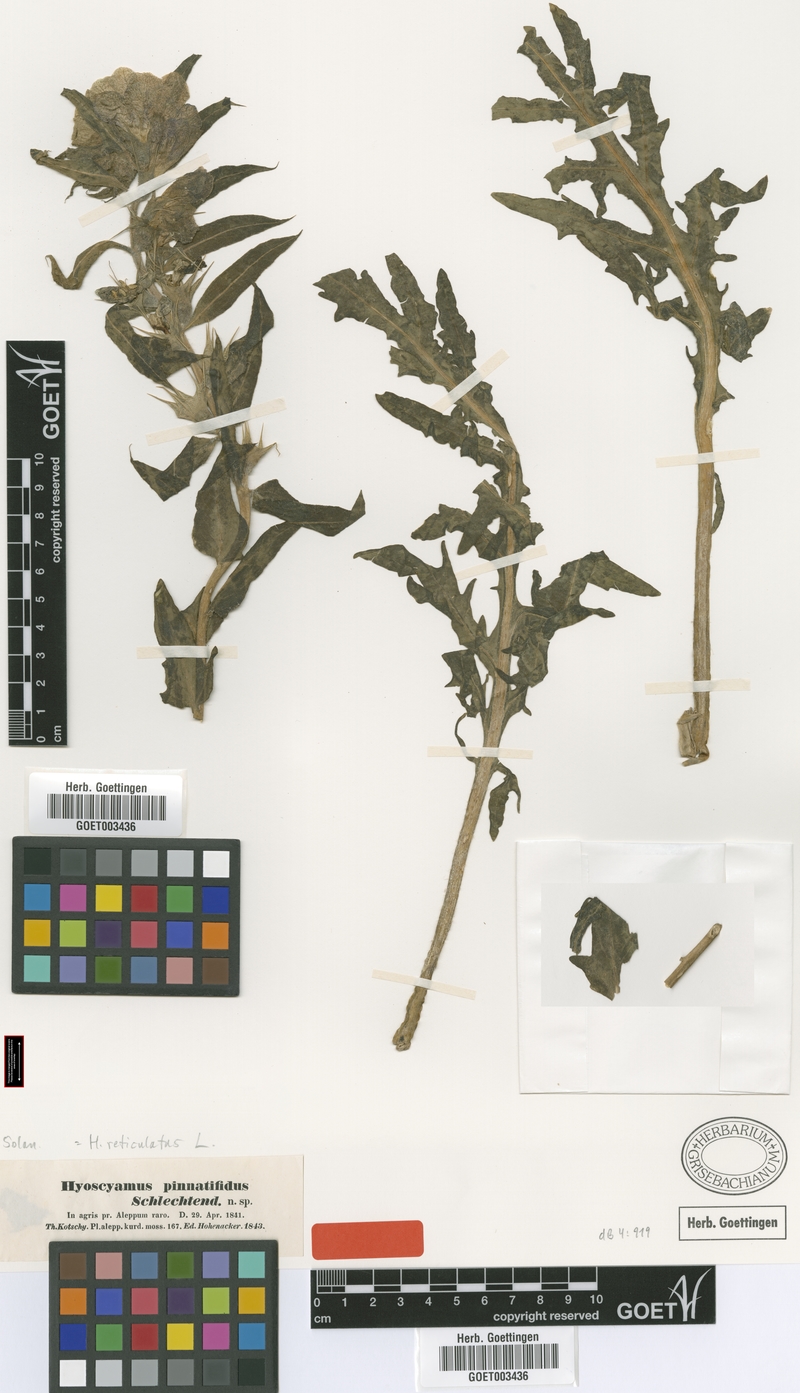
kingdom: Plantae
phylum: Tracheophyta
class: Magnoliopsida
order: Solanales
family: Solanaceae
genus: Hyoscyamus
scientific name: Hyoscyamus reticulatus
